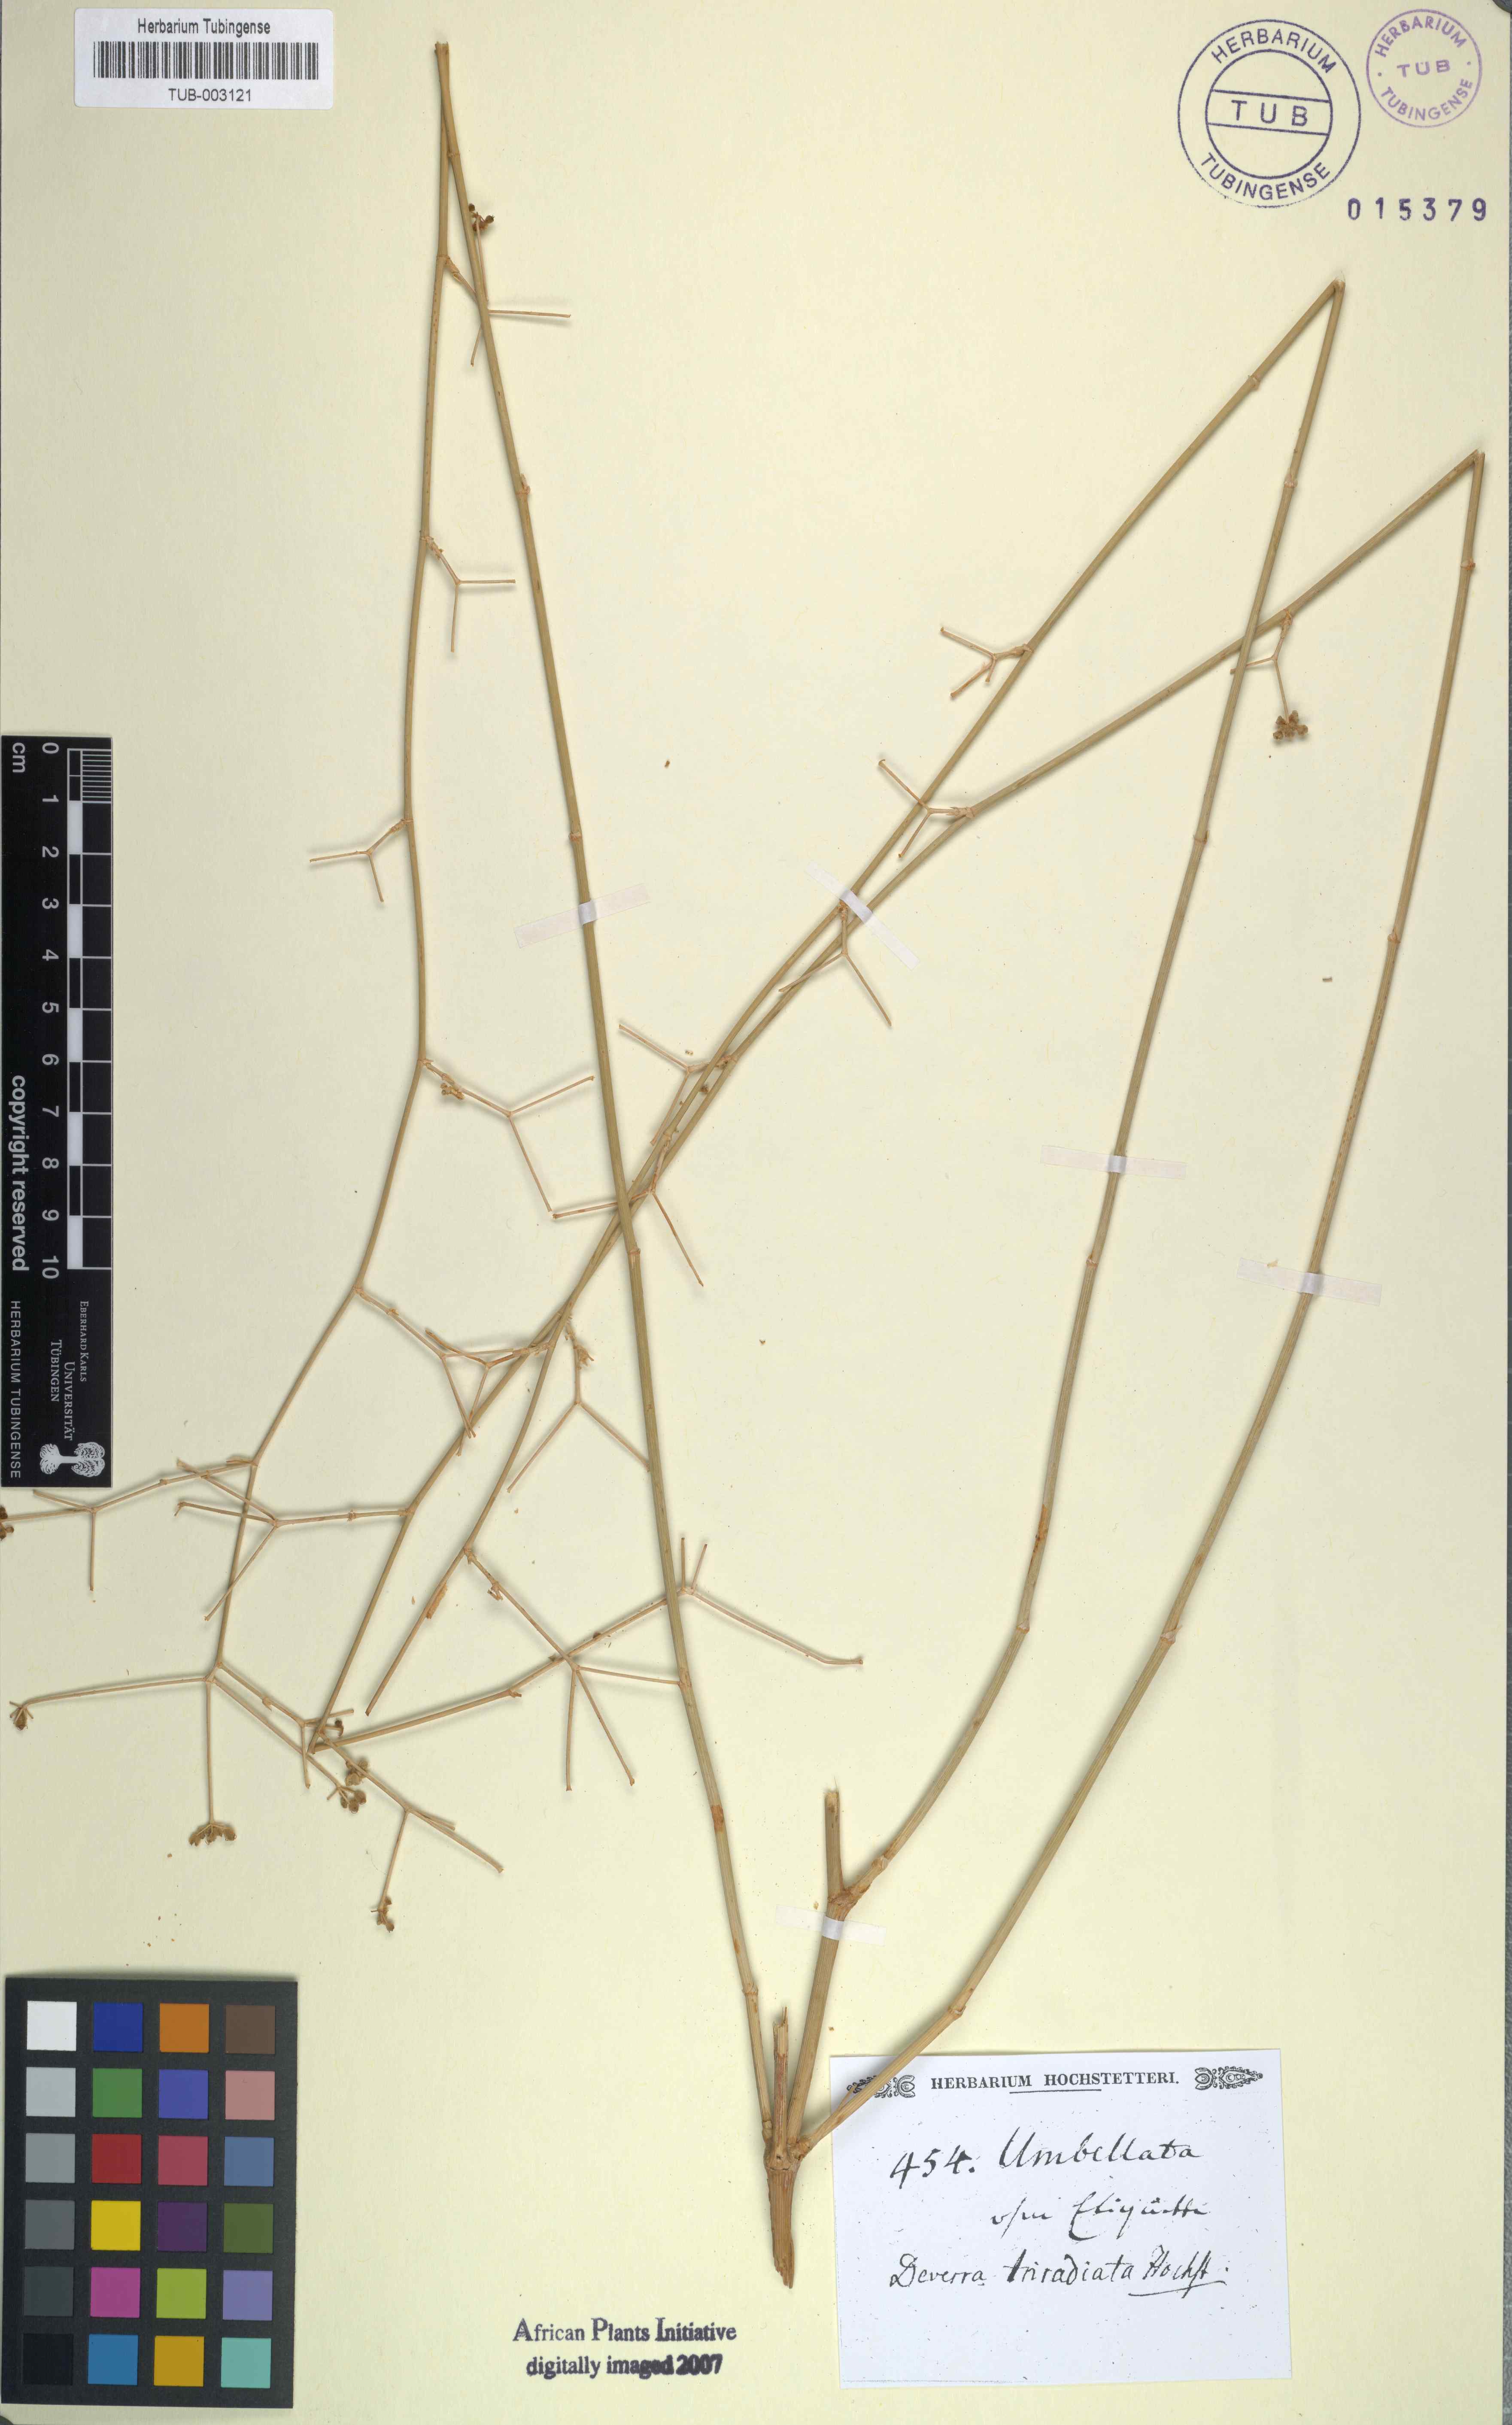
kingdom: Plantae
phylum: Tracheophyta
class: Magnoliopsida
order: Apiales
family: Apiaceae
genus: Deverra
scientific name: Deverra triradiata
